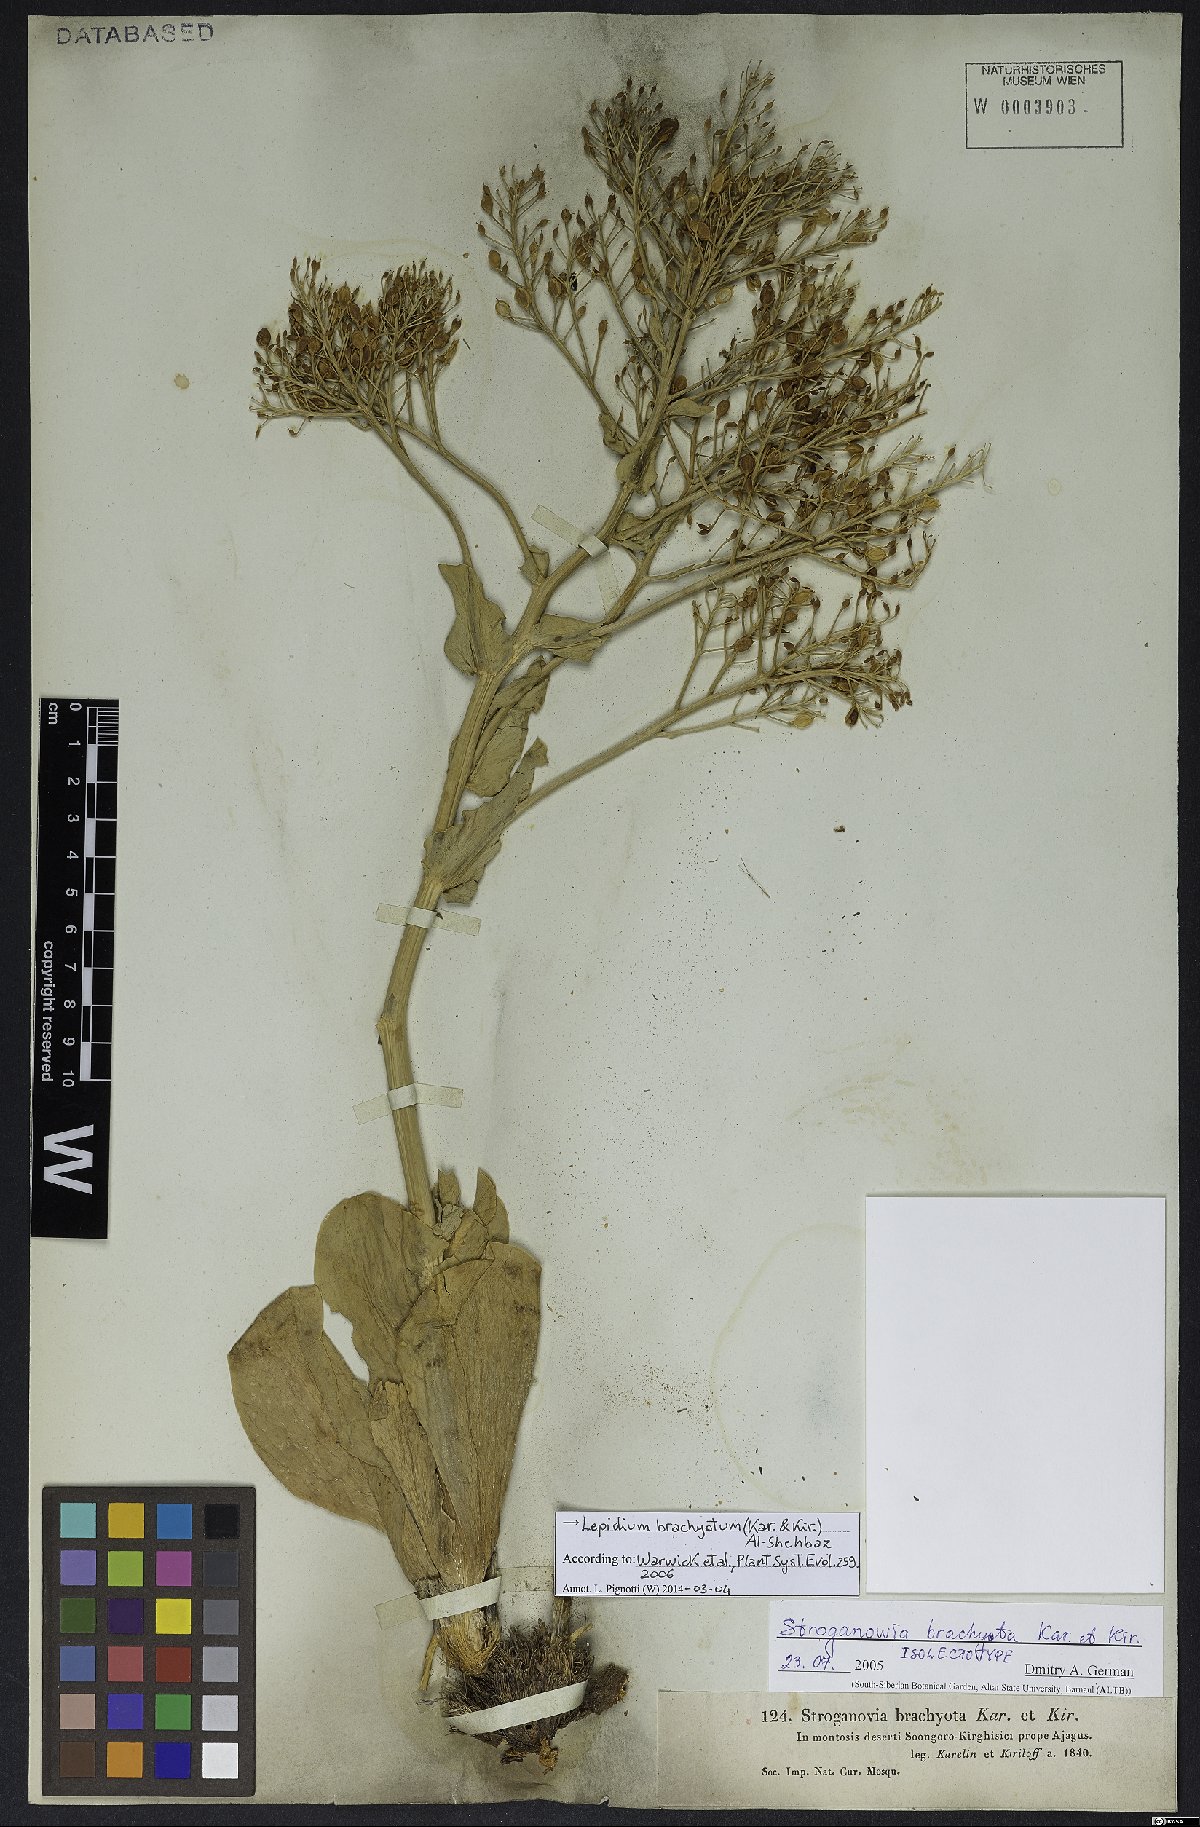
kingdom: Plantae
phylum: Tracheophyta
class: Magnoliopsida
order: Brassicales
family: Brassicaceae
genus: Lepidium
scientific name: Lepidium brachyotum
